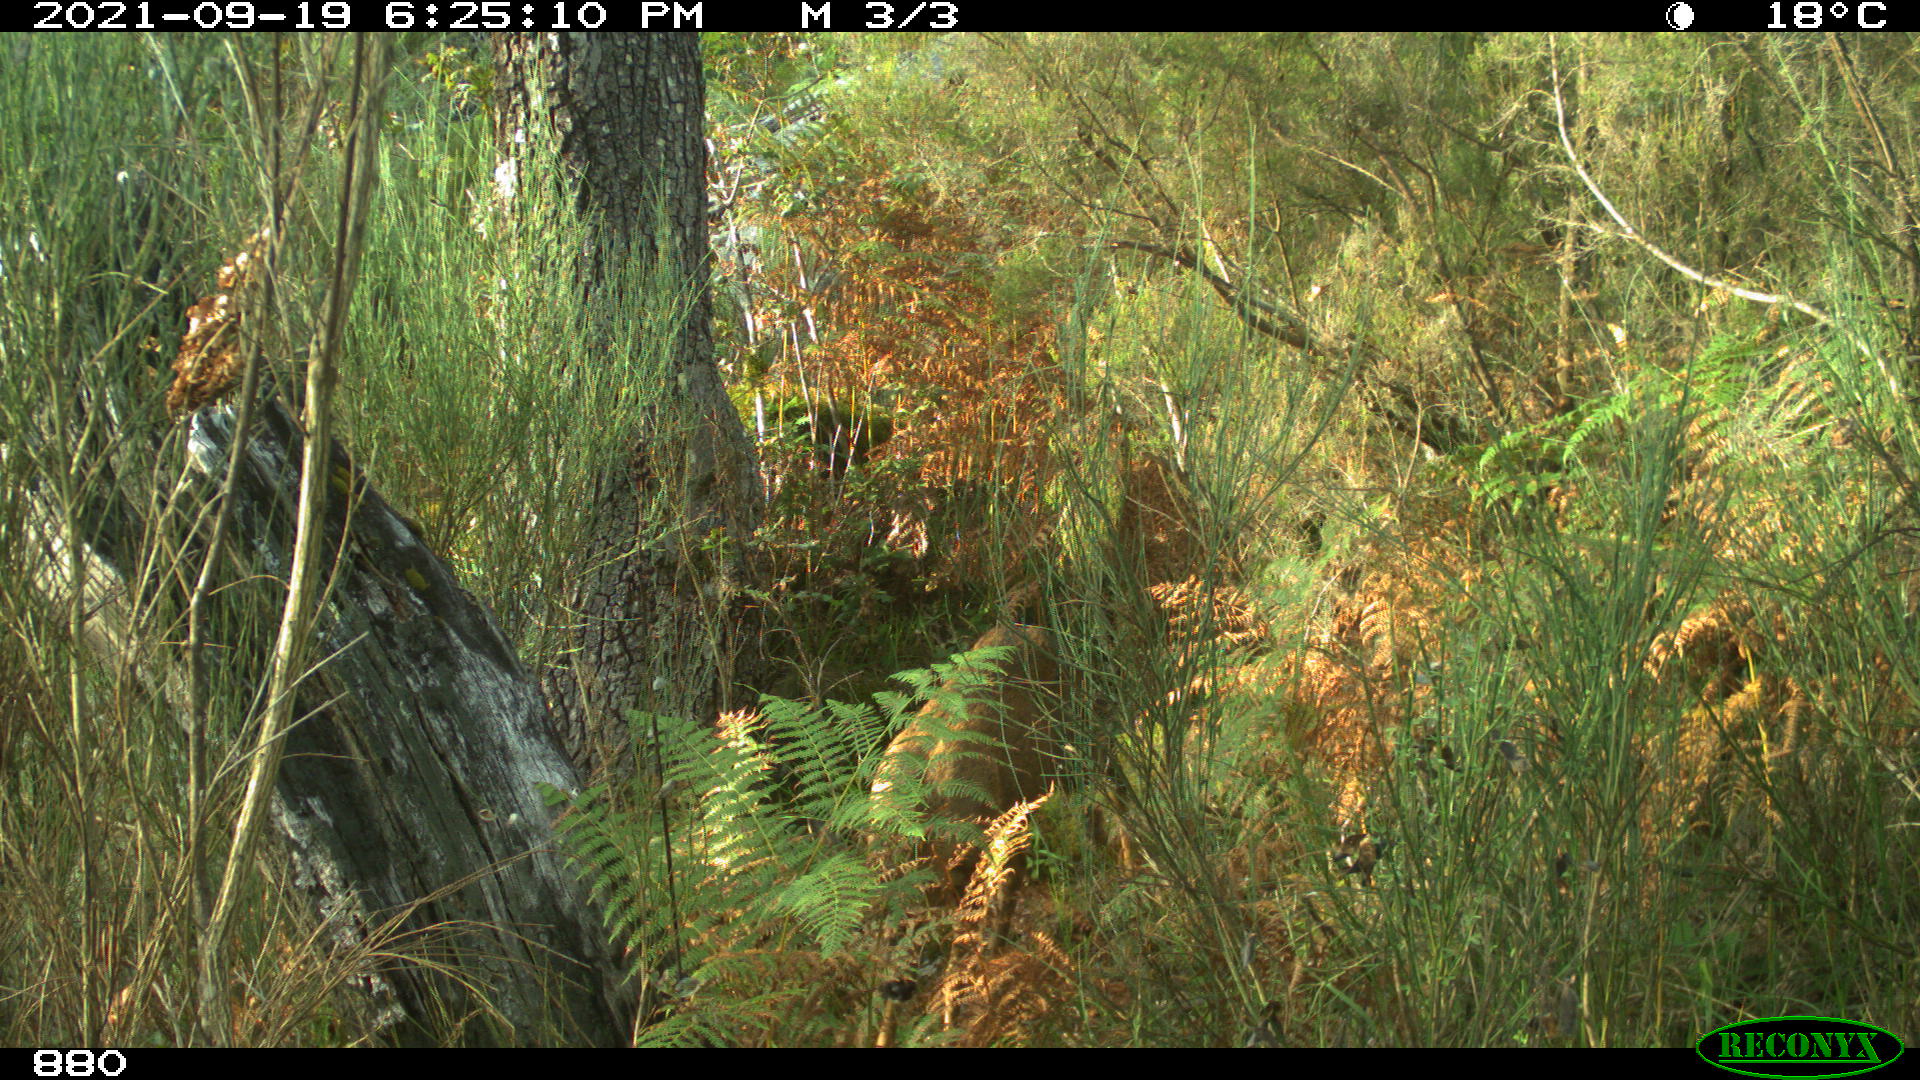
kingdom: Animalia
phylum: Chordata
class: Mammalia
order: Artiodactyla
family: Cervidae
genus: Capreolus
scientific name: Capreolus capreolus
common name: Western roe deer
